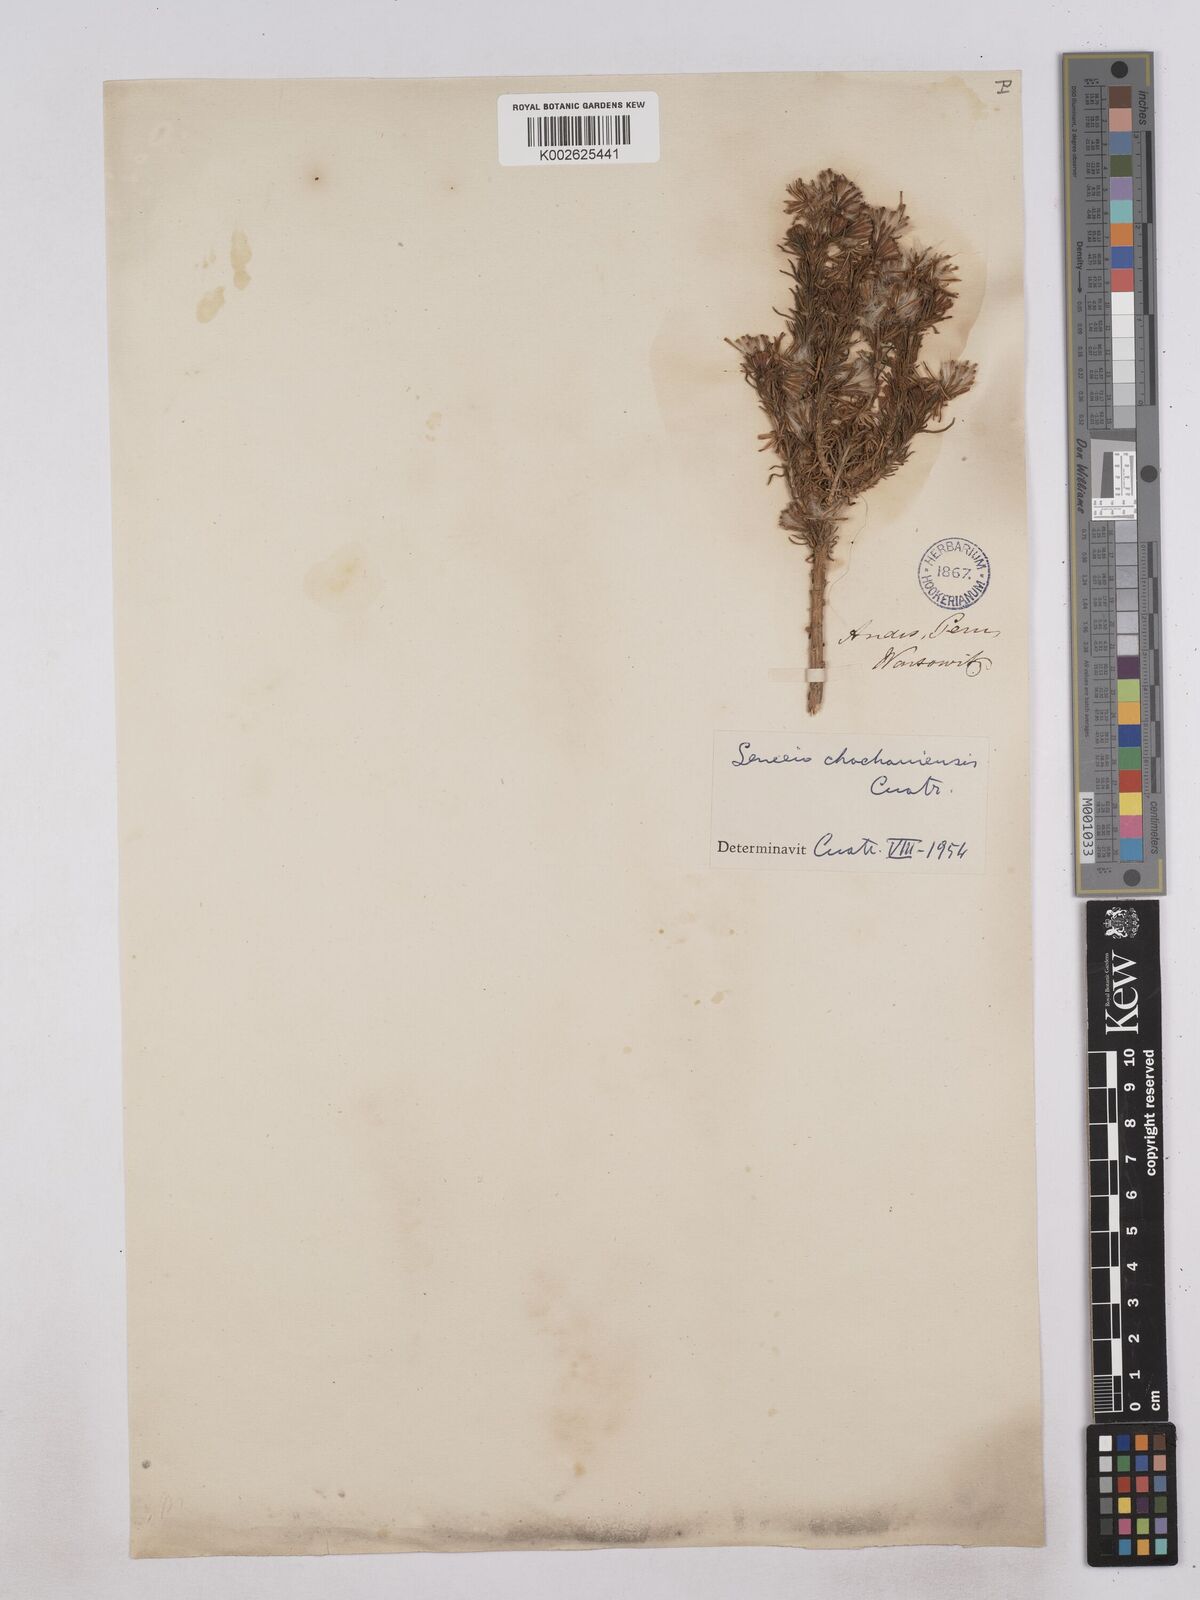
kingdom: Plantae
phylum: Tracheophyta
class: Magnoliopsida
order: Asterales
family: Asteraceae
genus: Senecio
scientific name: Senecio chachaniensis
